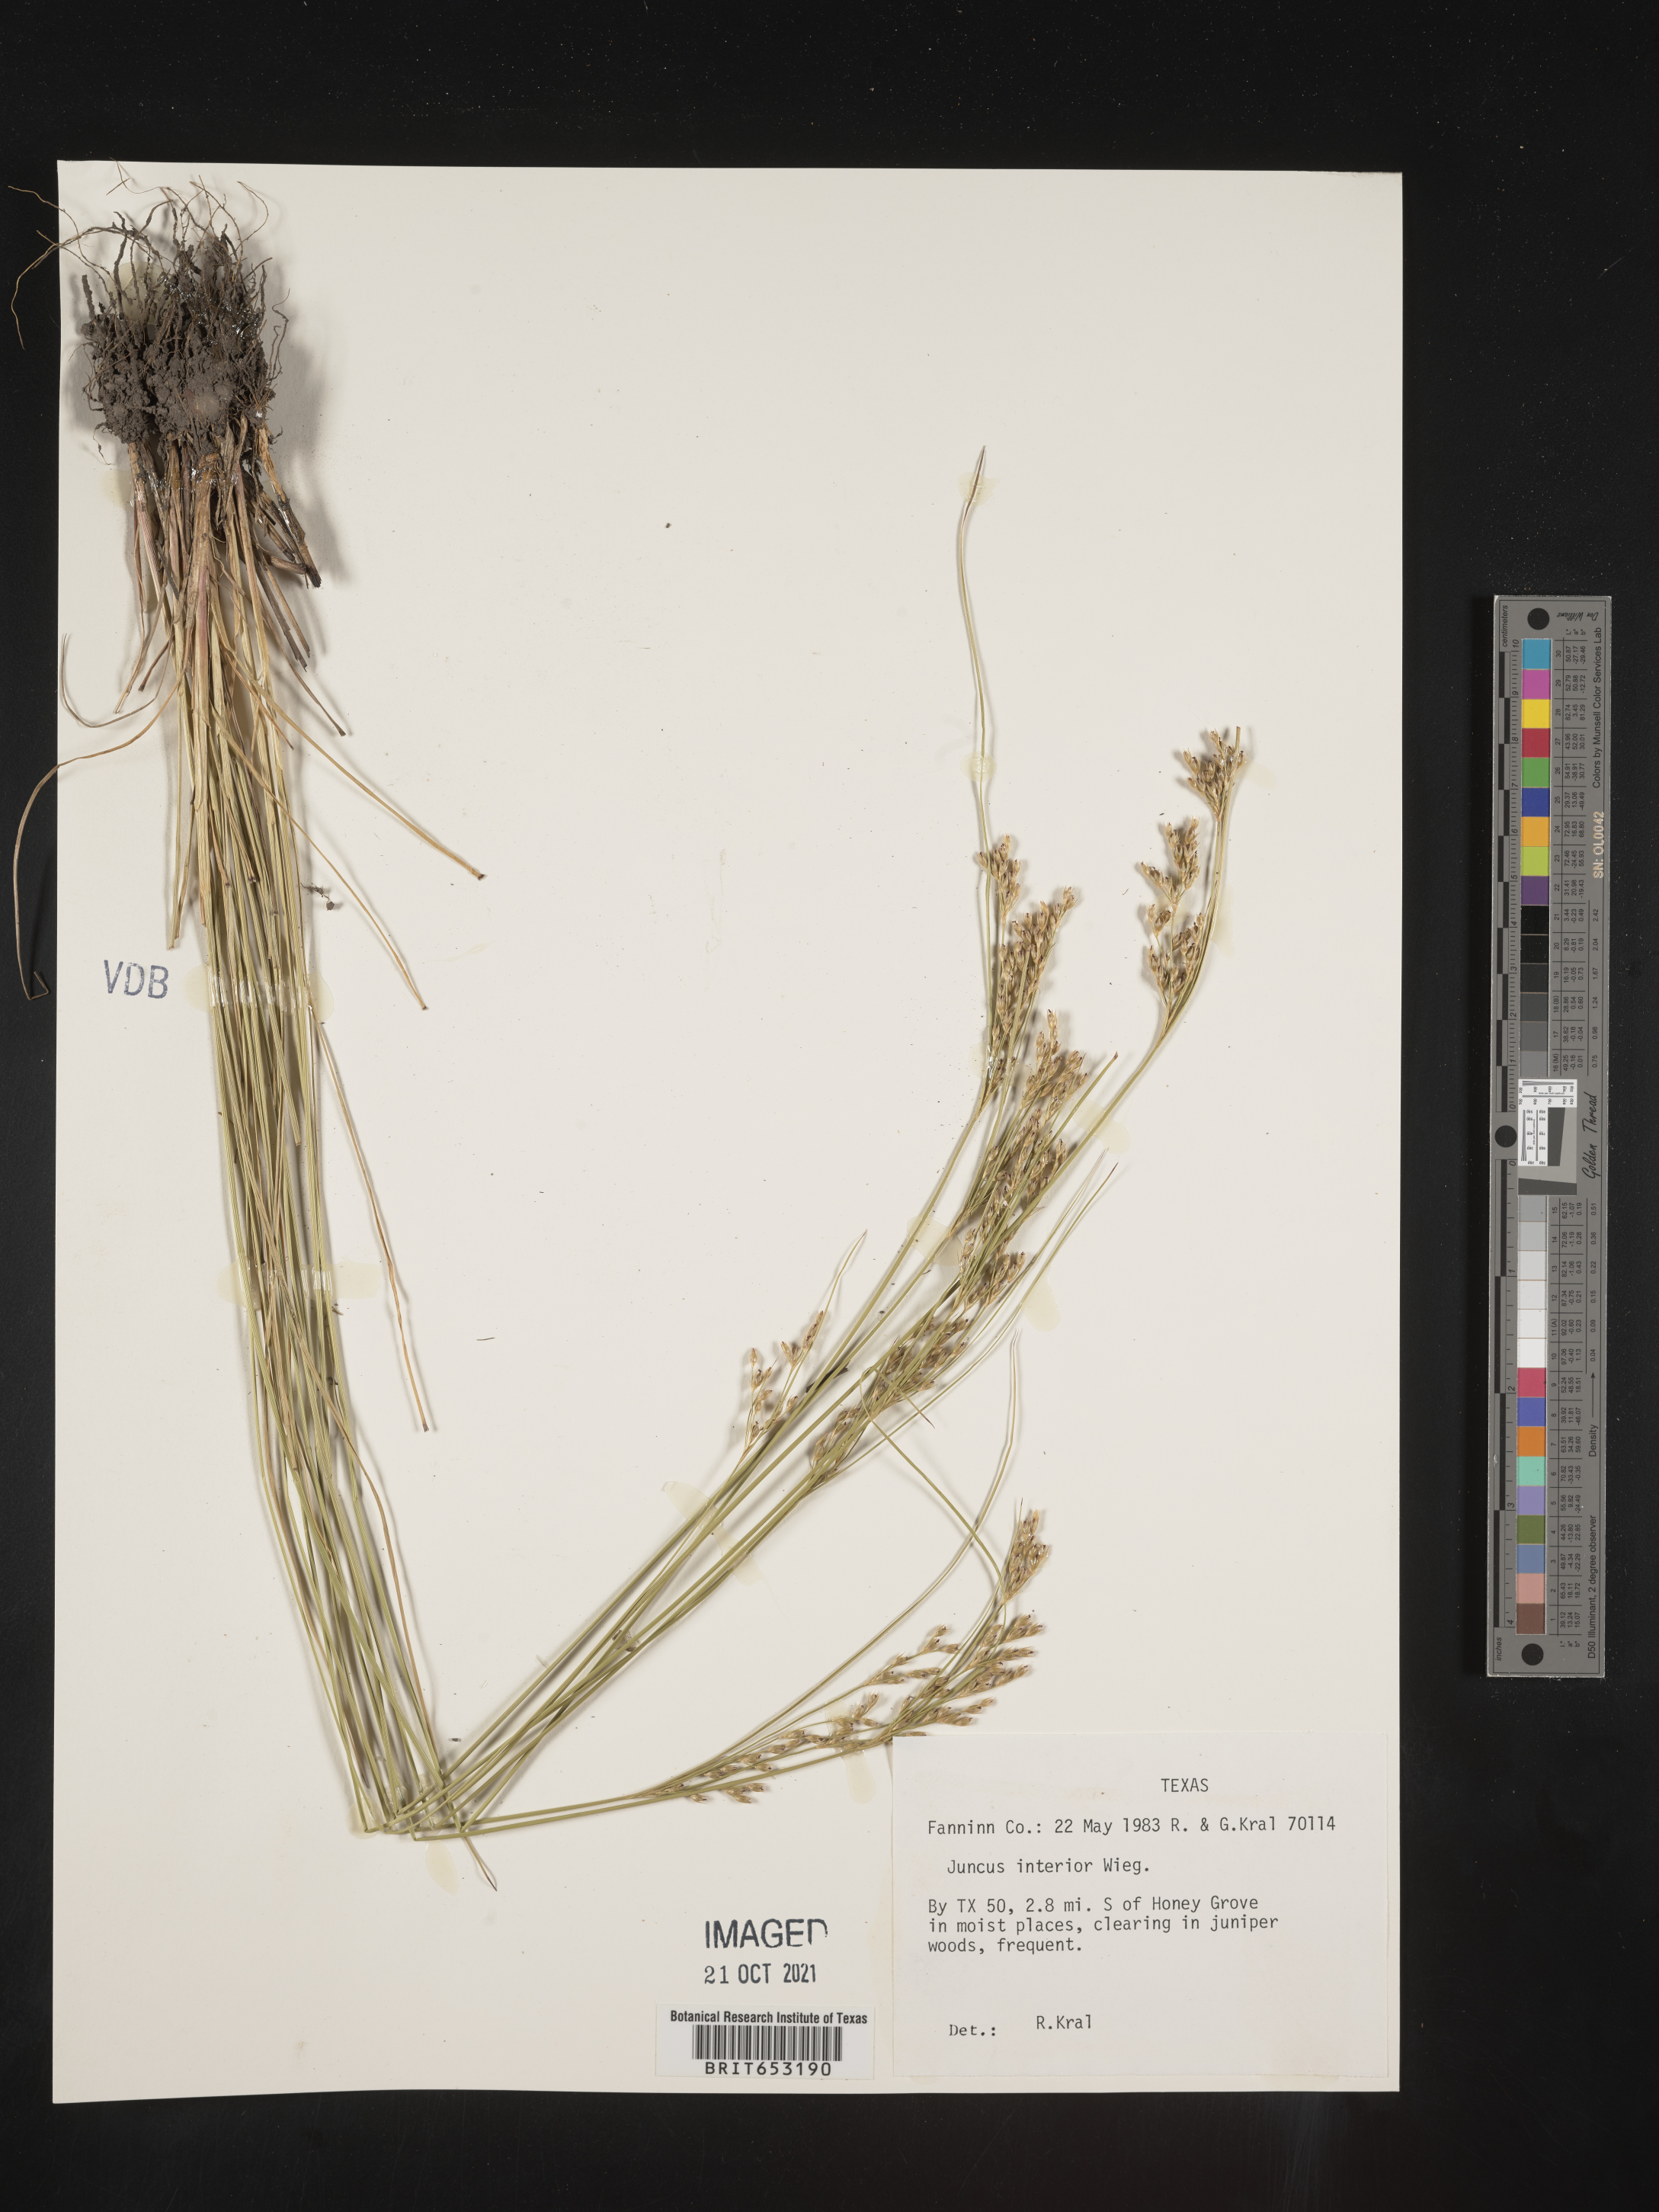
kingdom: Plantae
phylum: Tracheophyta
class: Liliopsida
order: Poales
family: Juncaceae
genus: Juncus
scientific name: Juncus interior
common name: Interior rush
